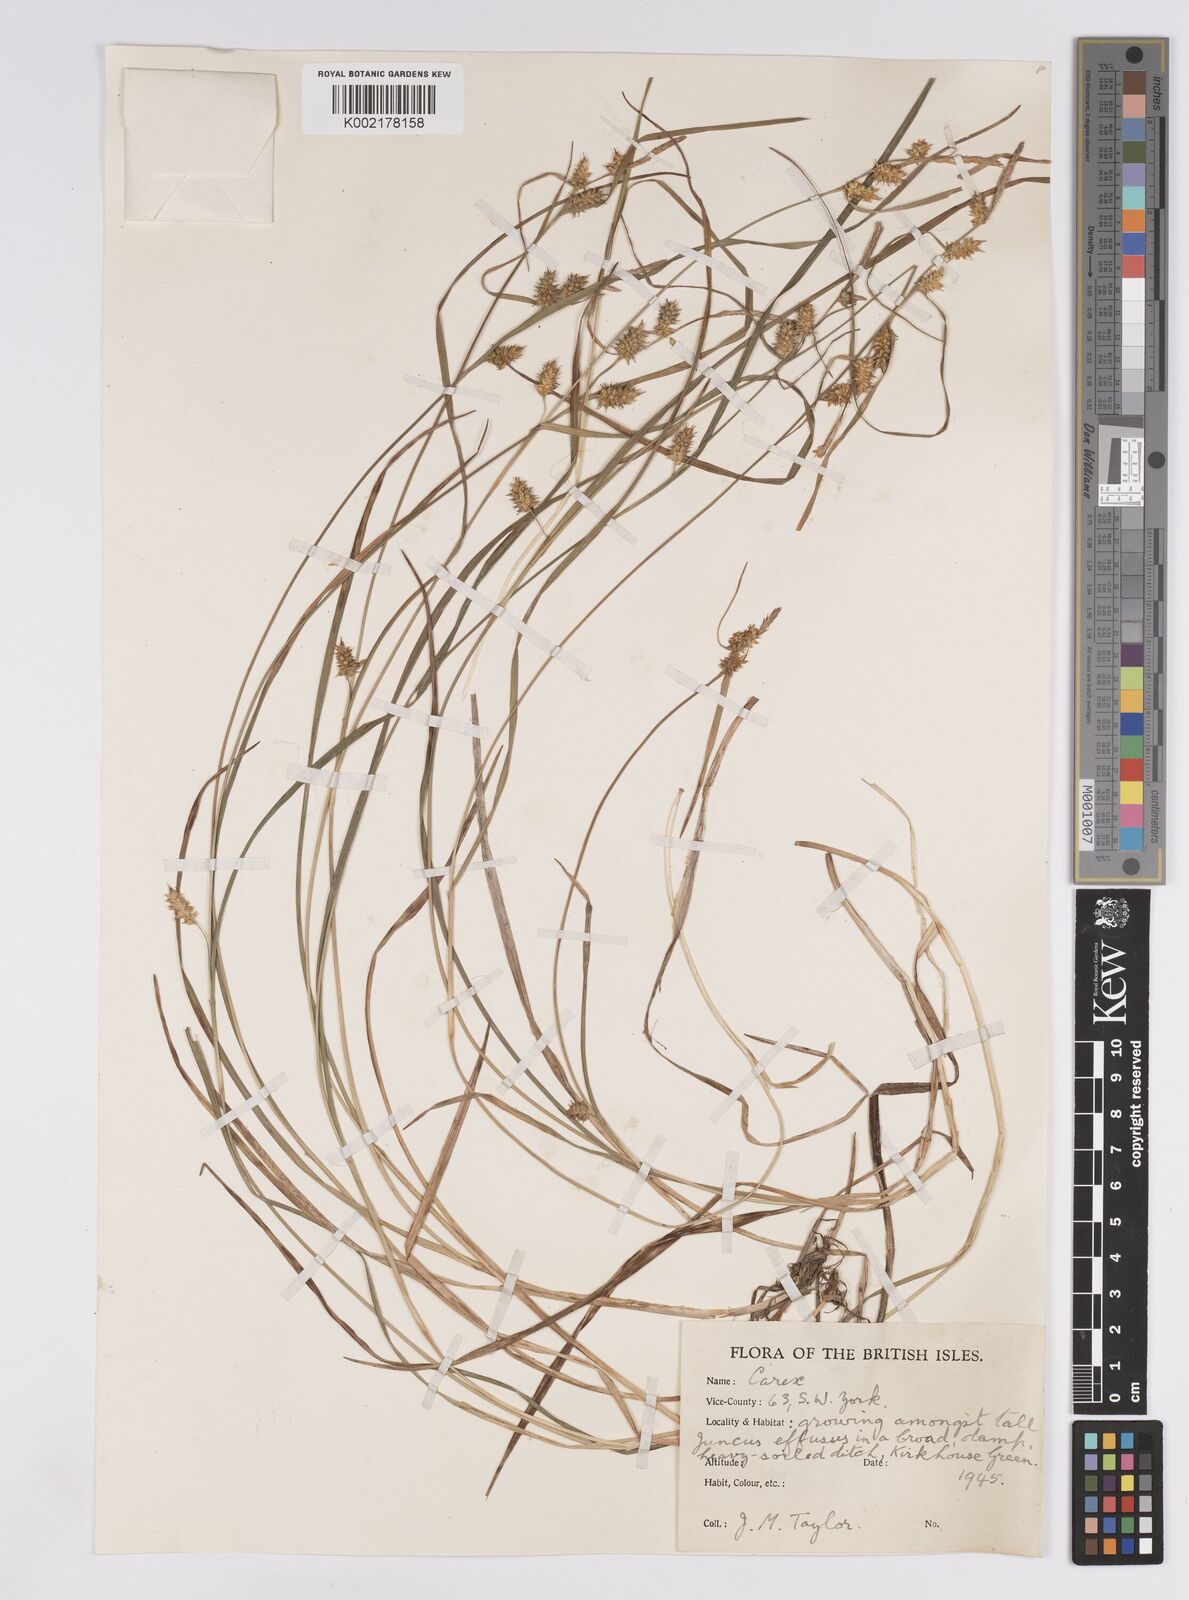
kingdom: Plantae
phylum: Tracheophyta
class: Liliopsida
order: Poales
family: Cyperaceae
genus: Carex
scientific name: Carex demissa
